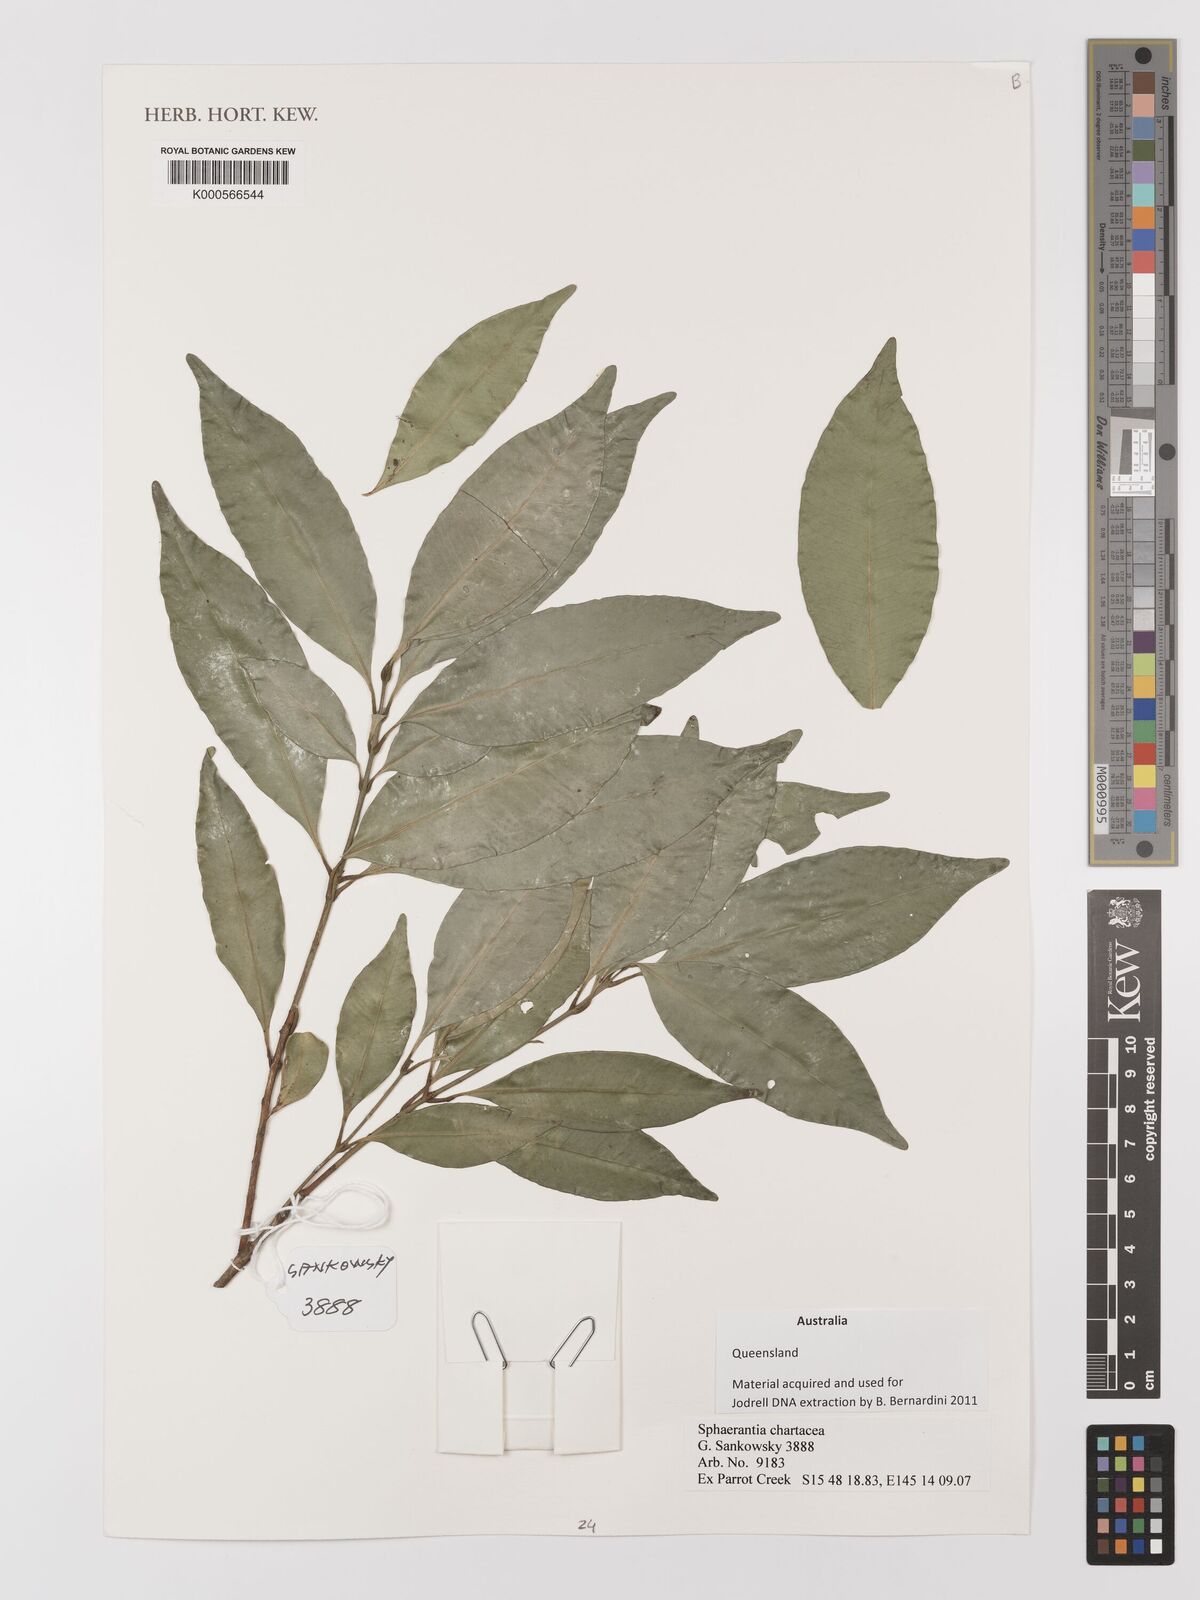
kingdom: Plantae
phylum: Tracheophyta
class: Magnoliopsida
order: Myrtales
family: Myrtaceae
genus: Sphaerantia
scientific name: Sphaerantia chartacea
